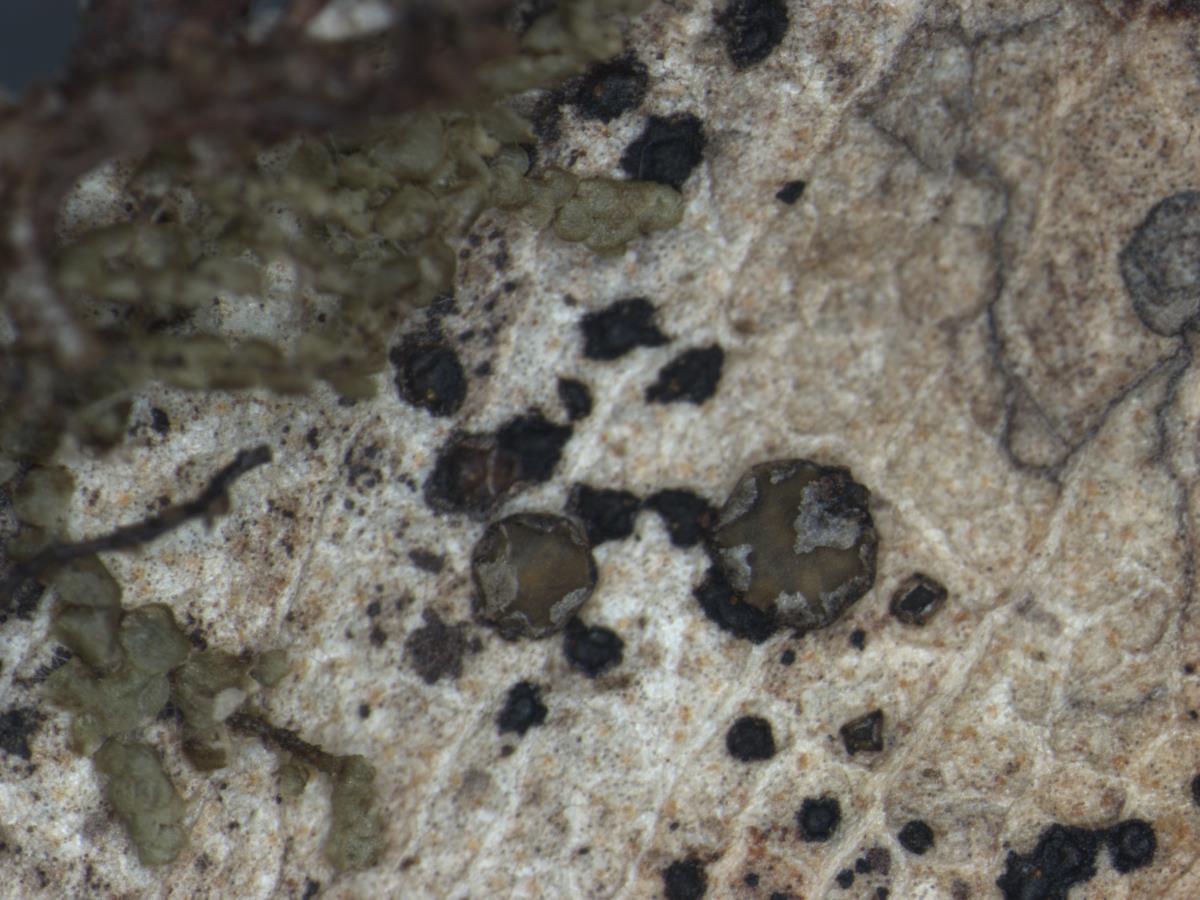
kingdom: Fungi
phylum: Ascomycota
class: Leotiomycetes
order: Rhytismatales
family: Rhytismataceae
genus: Coccomyces
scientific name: Coccomyces radiatus
